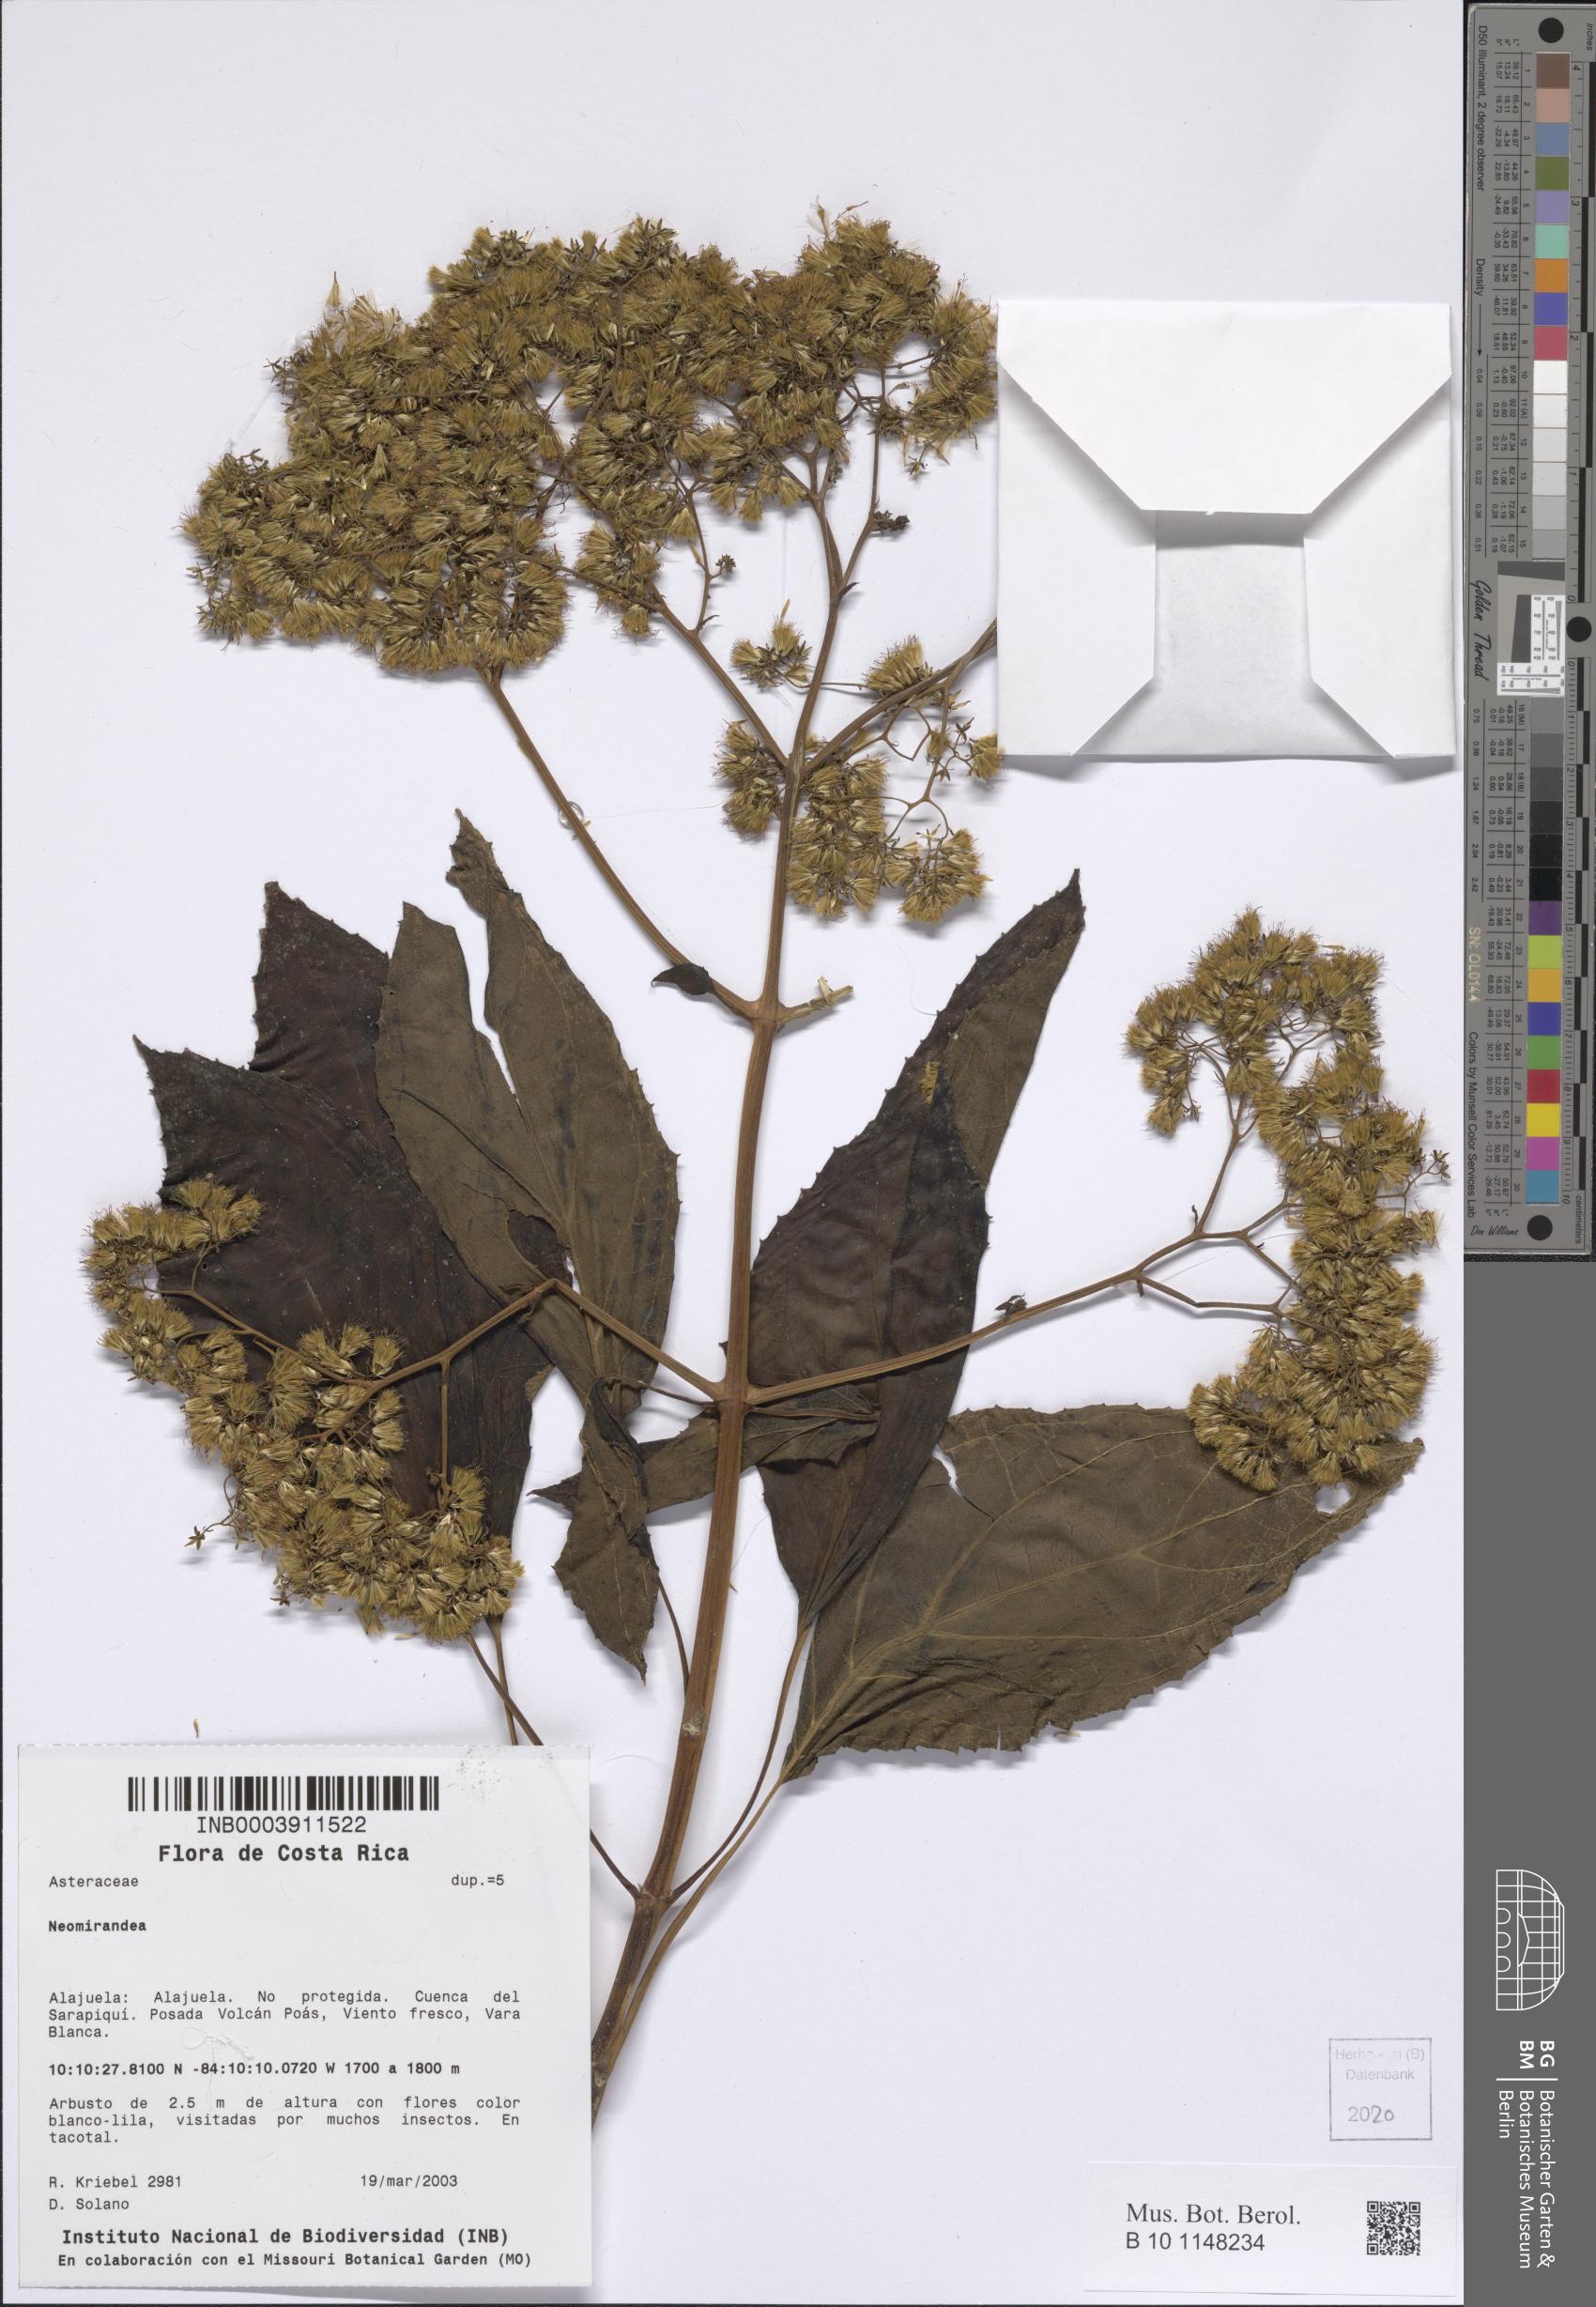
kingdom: Plantae
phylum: Tracheophyta
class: Magnoliopsida
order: Asterales
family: Asteraceae
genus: Neomirandea
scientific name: Neomirandea
